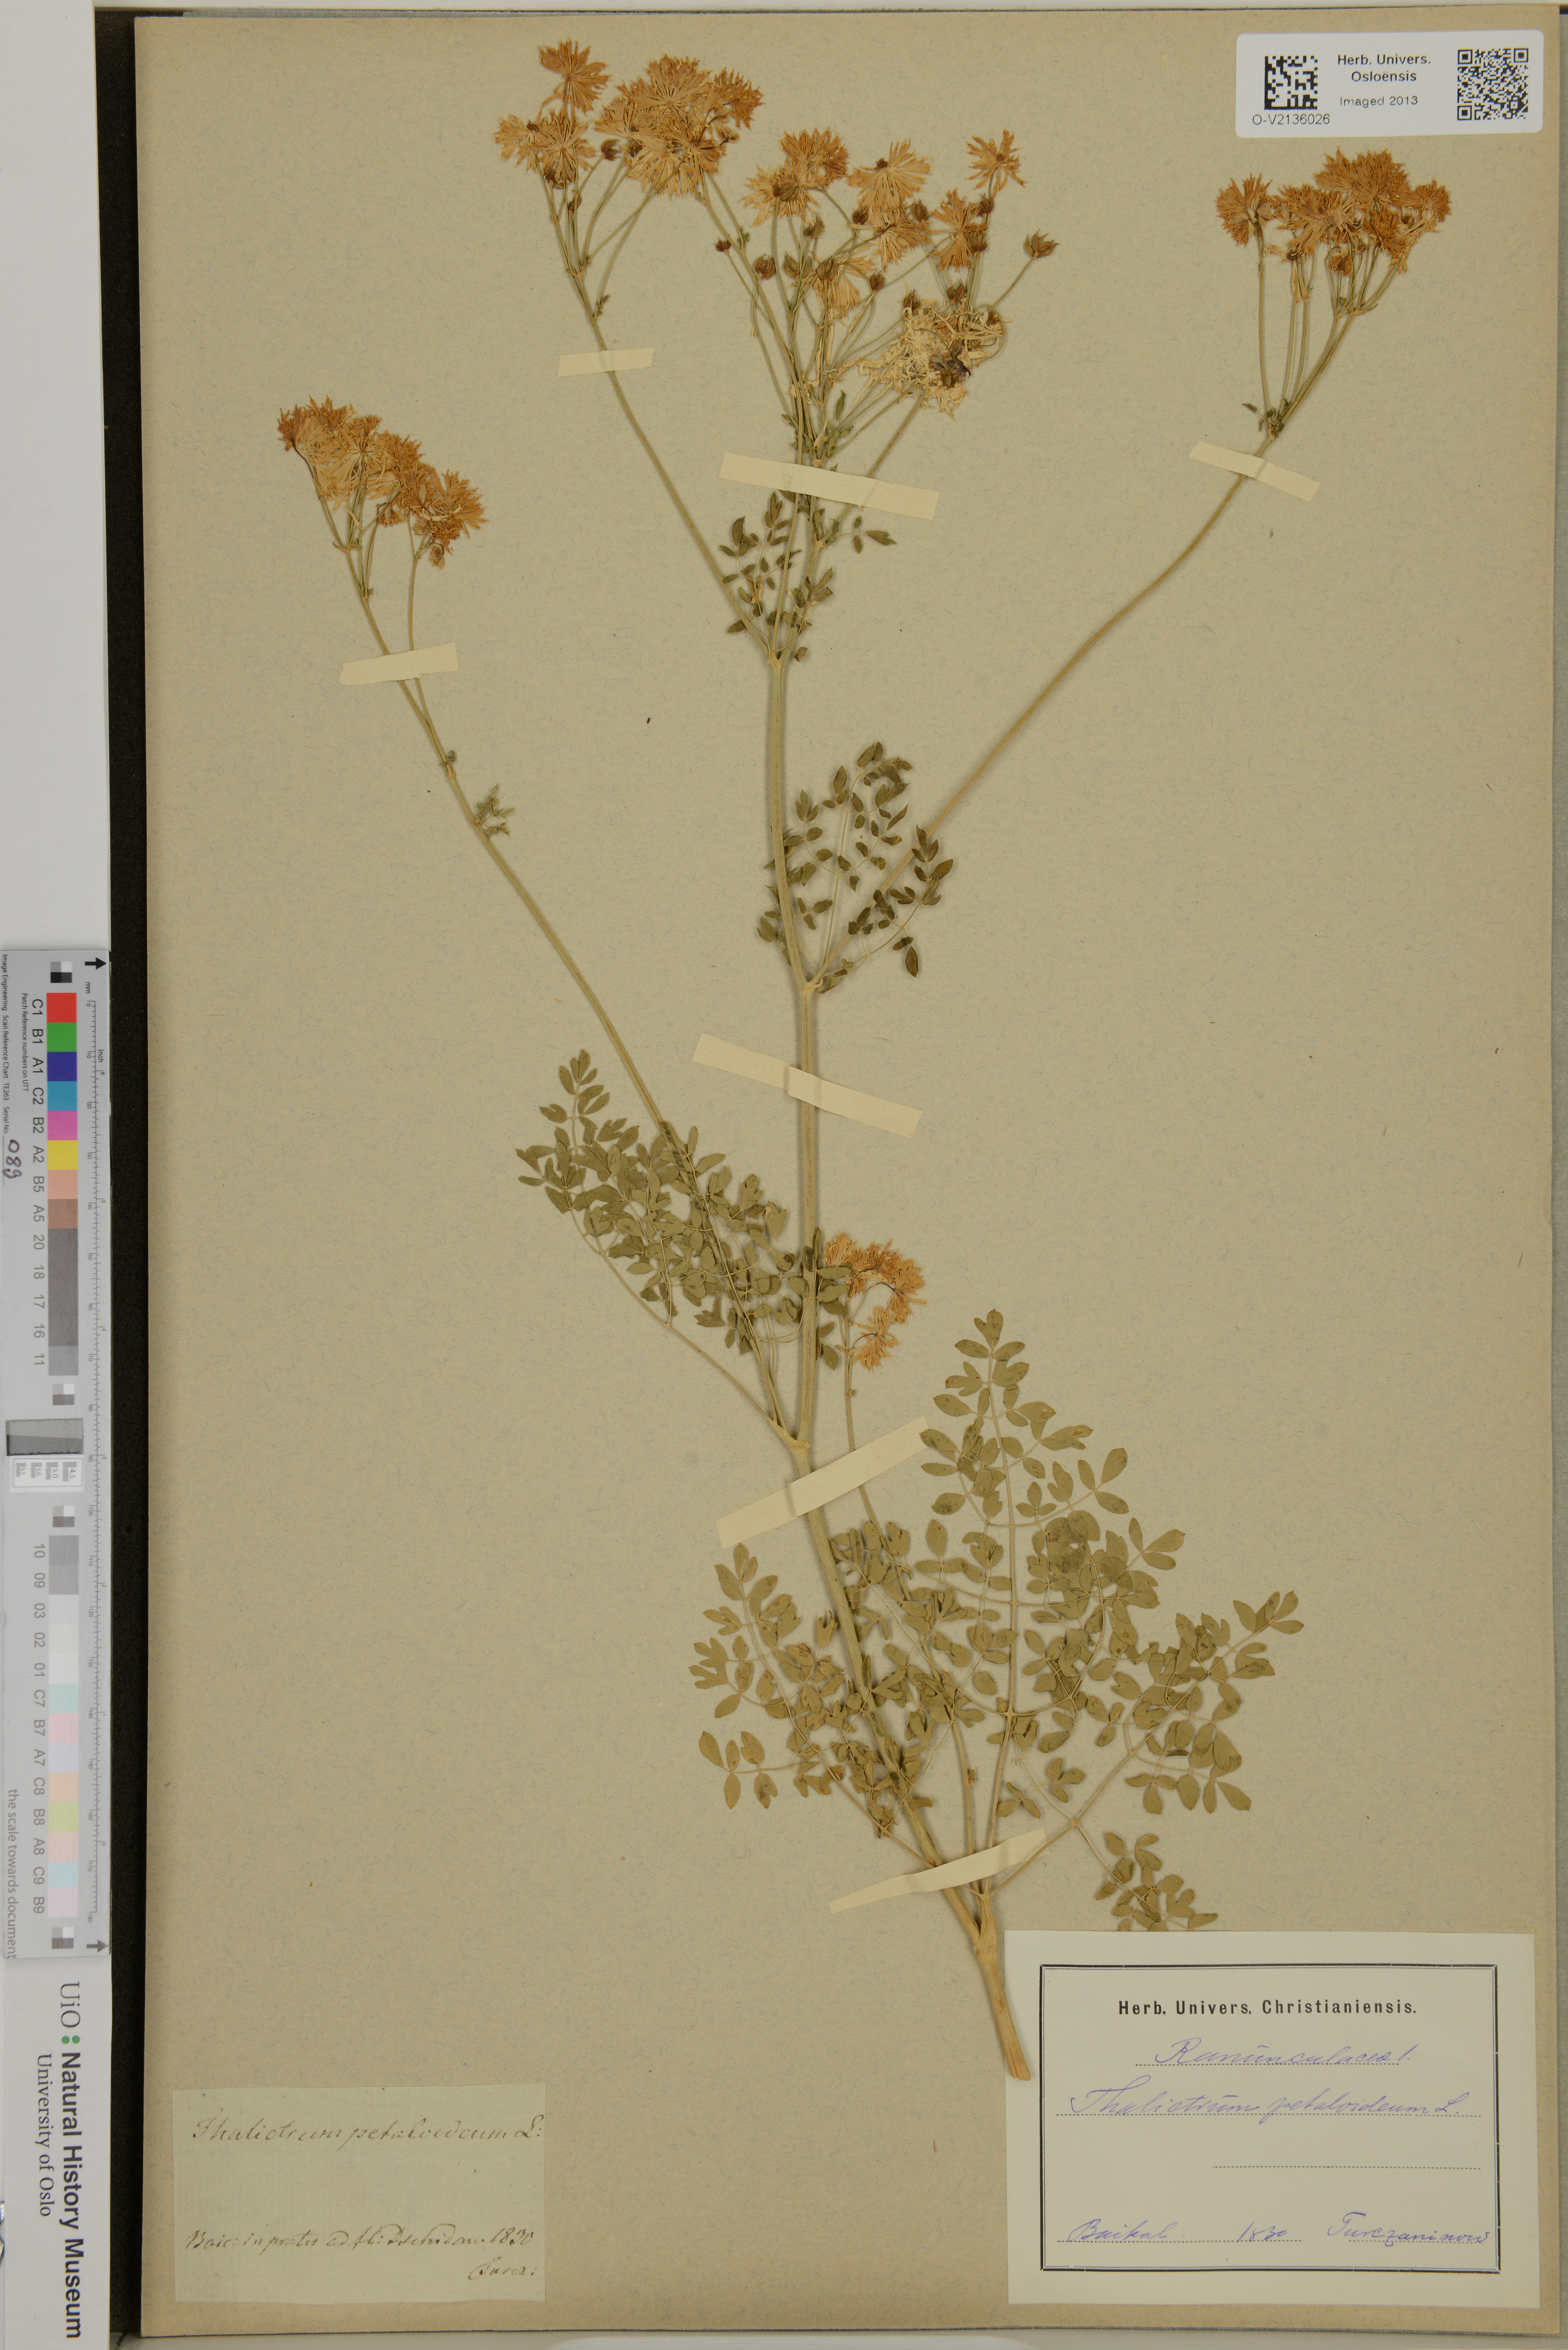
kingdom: Plantae
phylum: Tracheophyta
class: Magnoliopsida
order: Ranunculales
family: Ranunculaceae
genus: Thalictrum
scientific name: Thalictrum petaloideum
